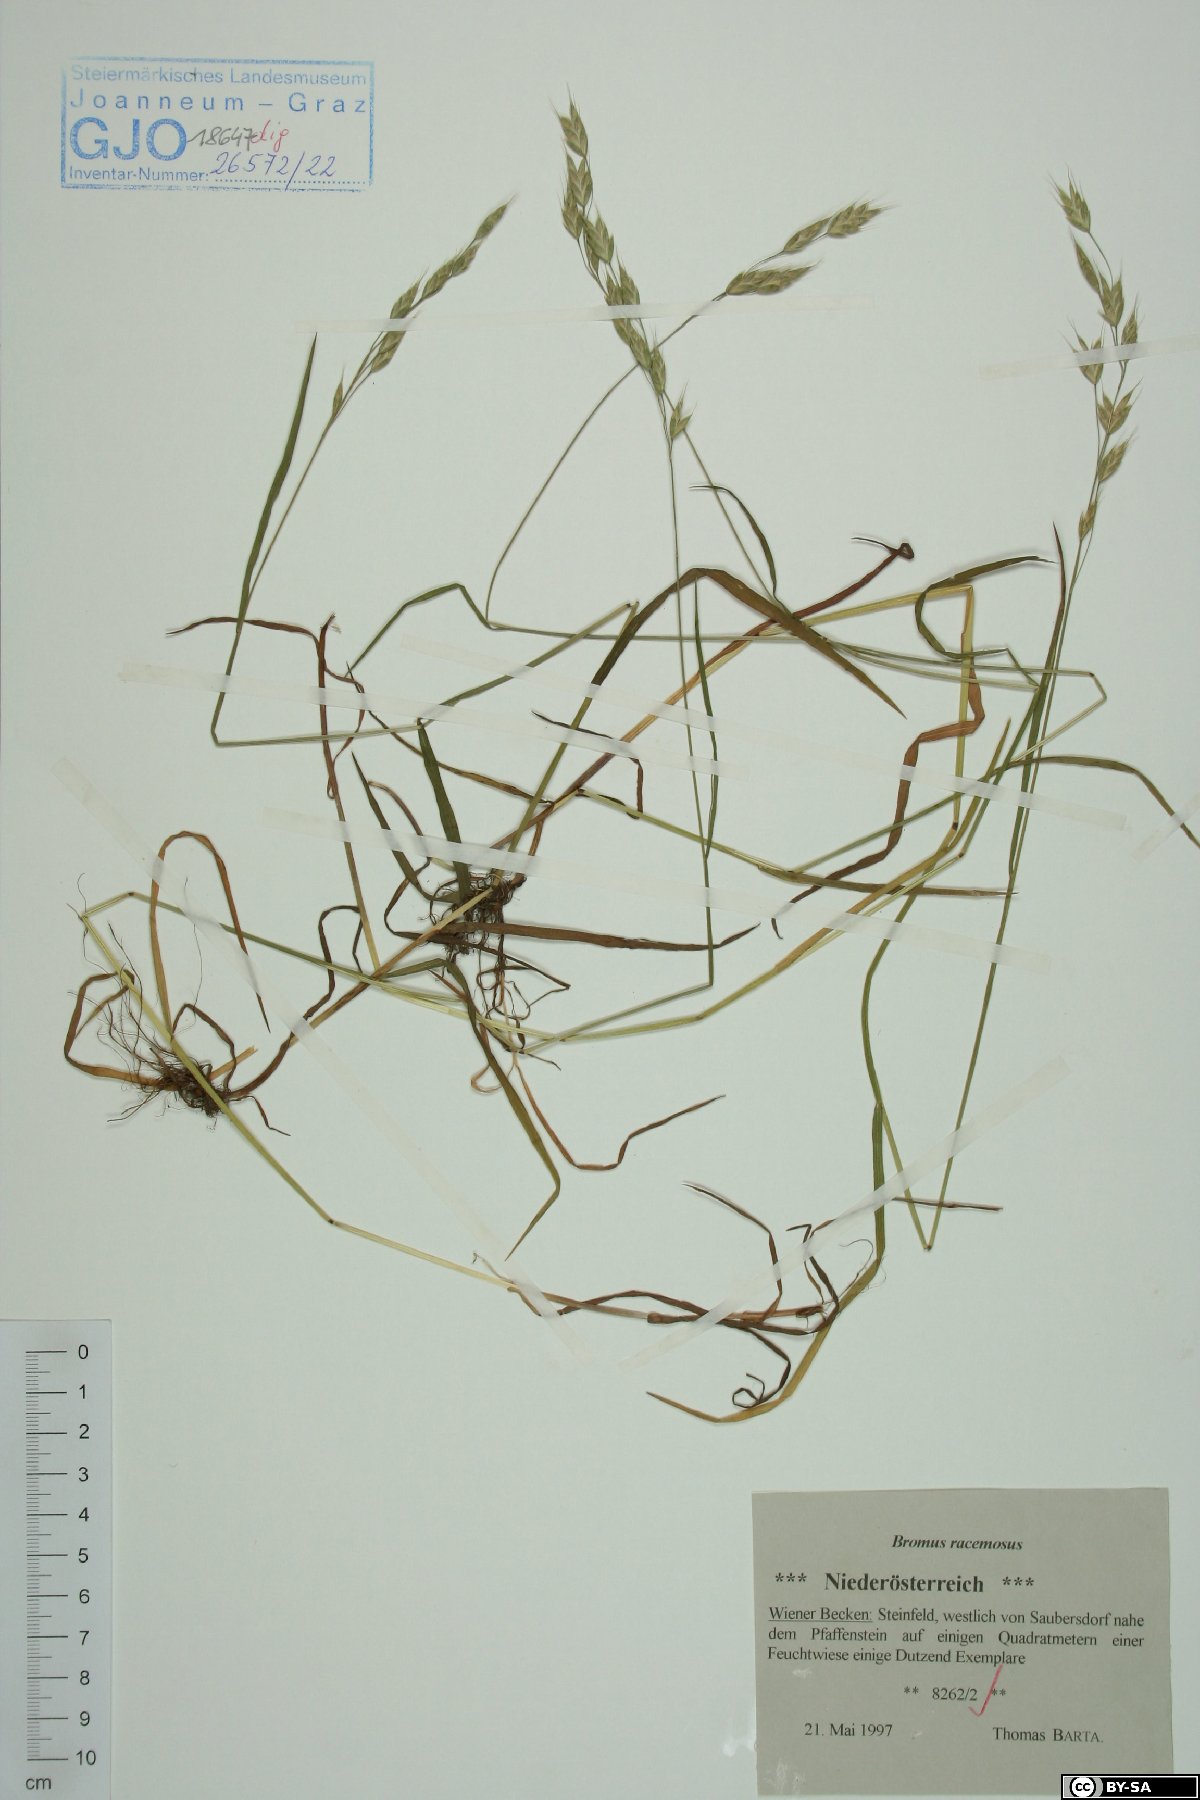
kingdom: Plantae
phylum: Tracheophyta
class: Liliopsida
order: Poales
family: Poaceae
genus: Bromus
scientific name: Bromus racemosus
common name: Bald brome
